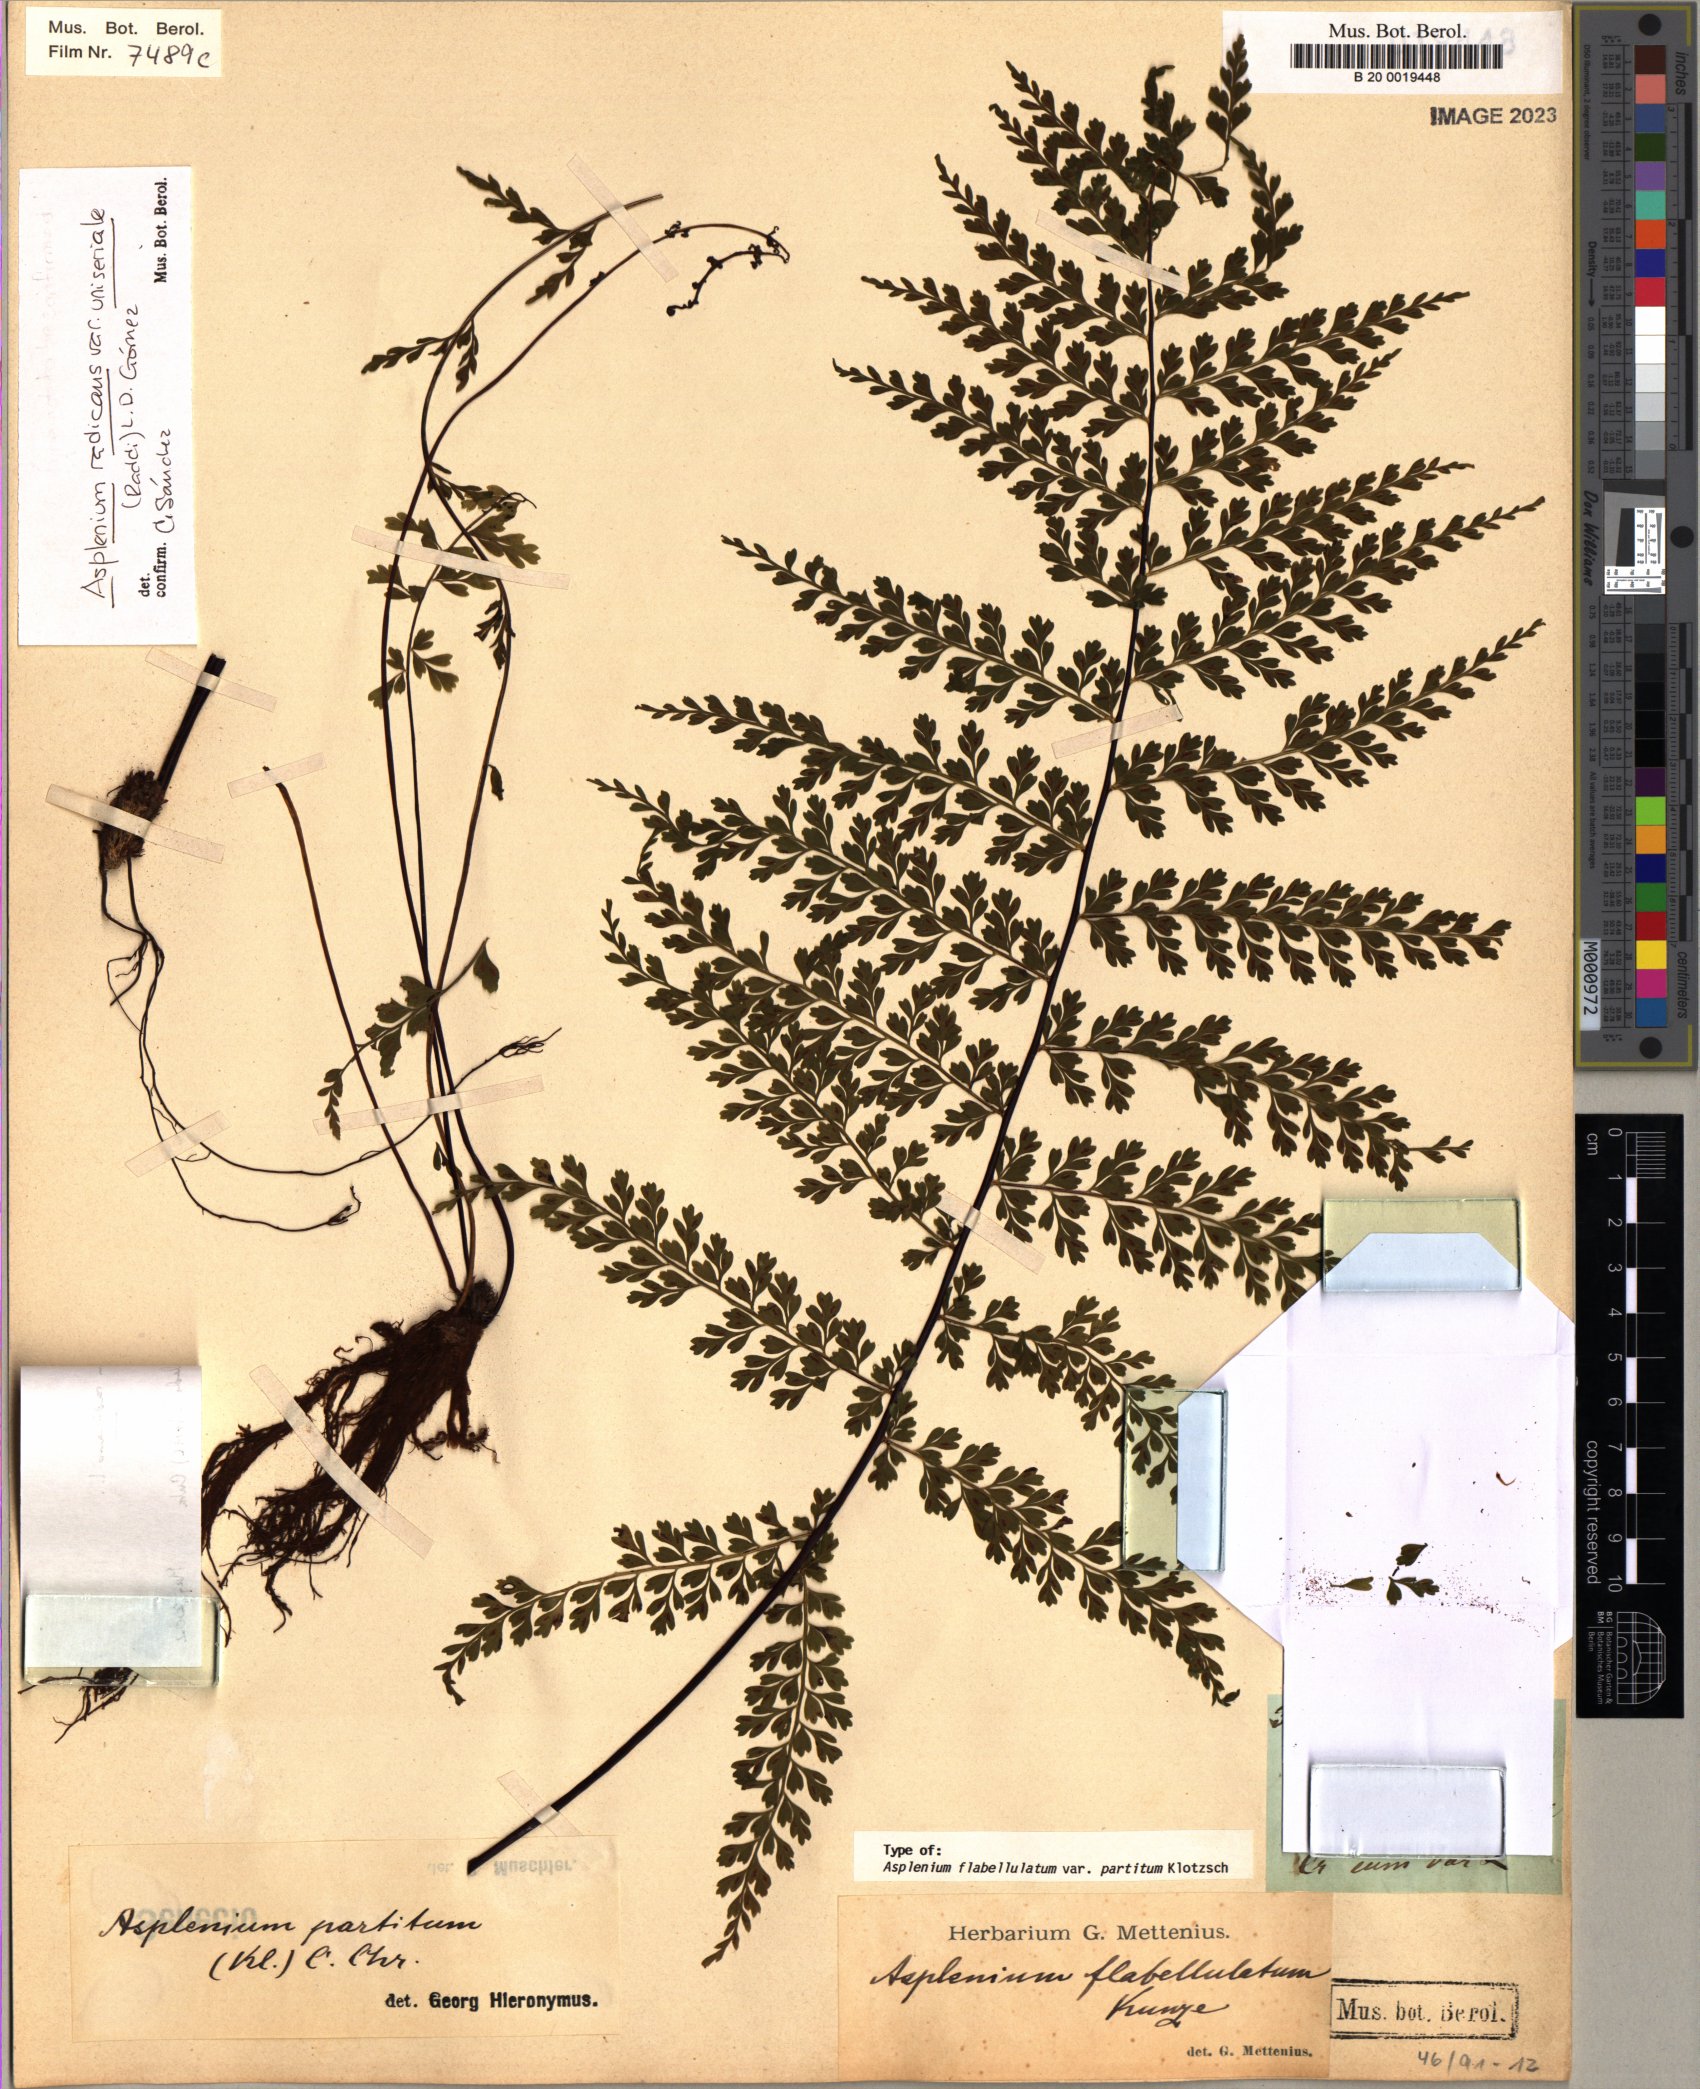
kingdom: Plantae
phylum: Tracheophyta
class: Polypodiopsida
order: Polypodiales
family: Aspleniaceae
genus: Asplenium
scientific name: Asplenium flabellulatum
